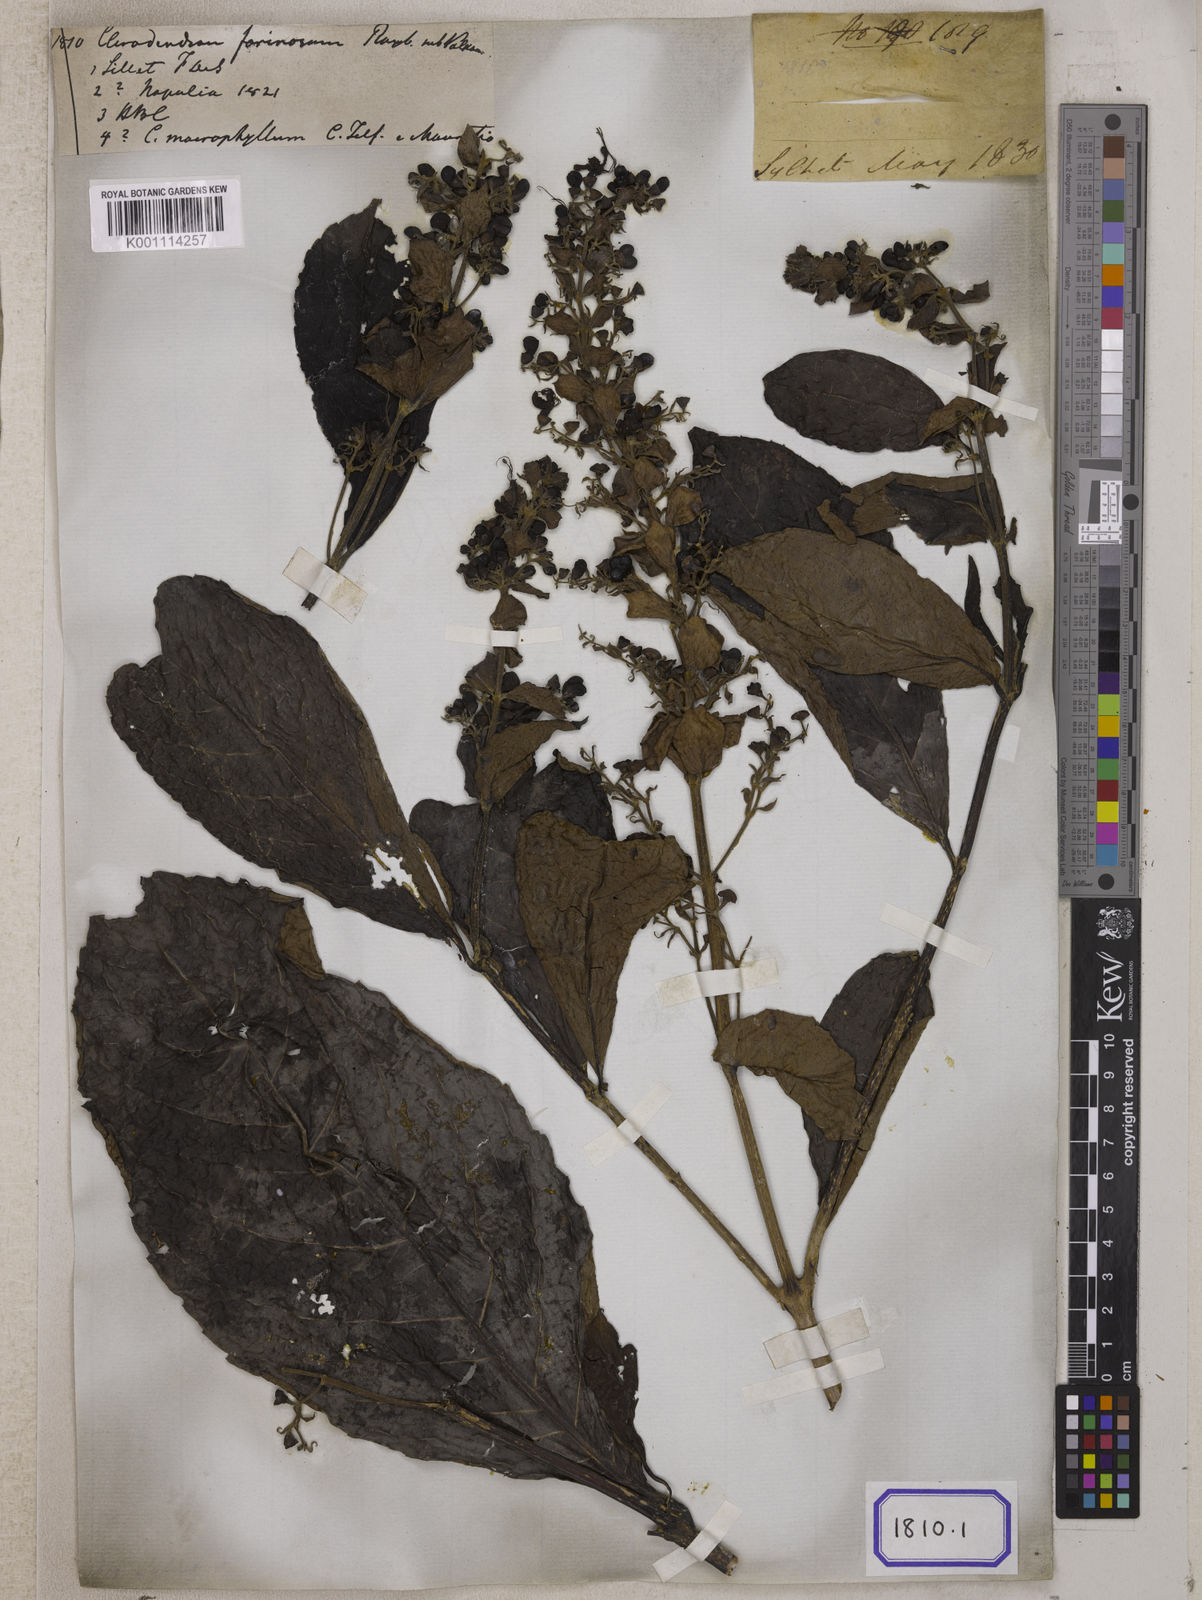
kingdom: Plantae
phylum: Tracheophyta
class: Magnoliopsida
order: Lamiales
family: Lamiaceae
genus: Clerodendrum
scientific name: Clerodendrum
